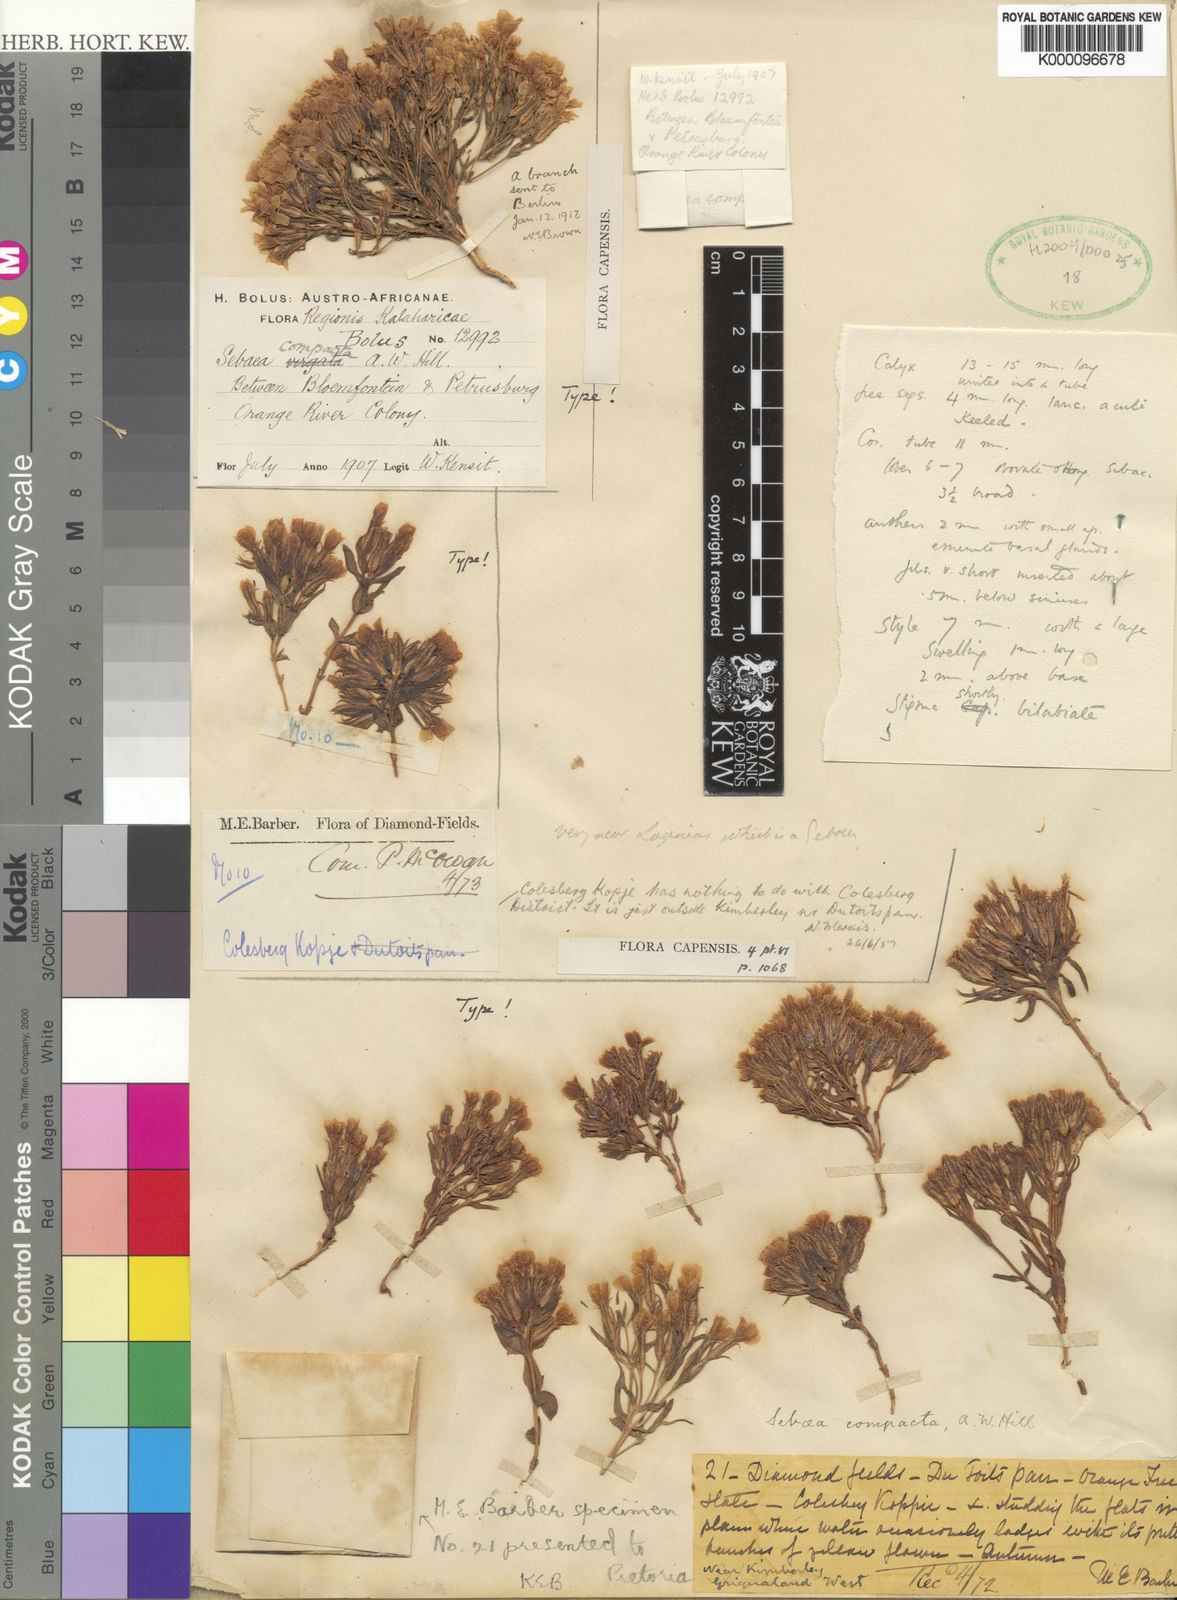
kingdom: Plantae
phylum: Tracheophyta
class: Magnoliopsida
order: Gentianales
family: Gentianaceae
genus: Sebaea
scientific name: Sebaea compacta
